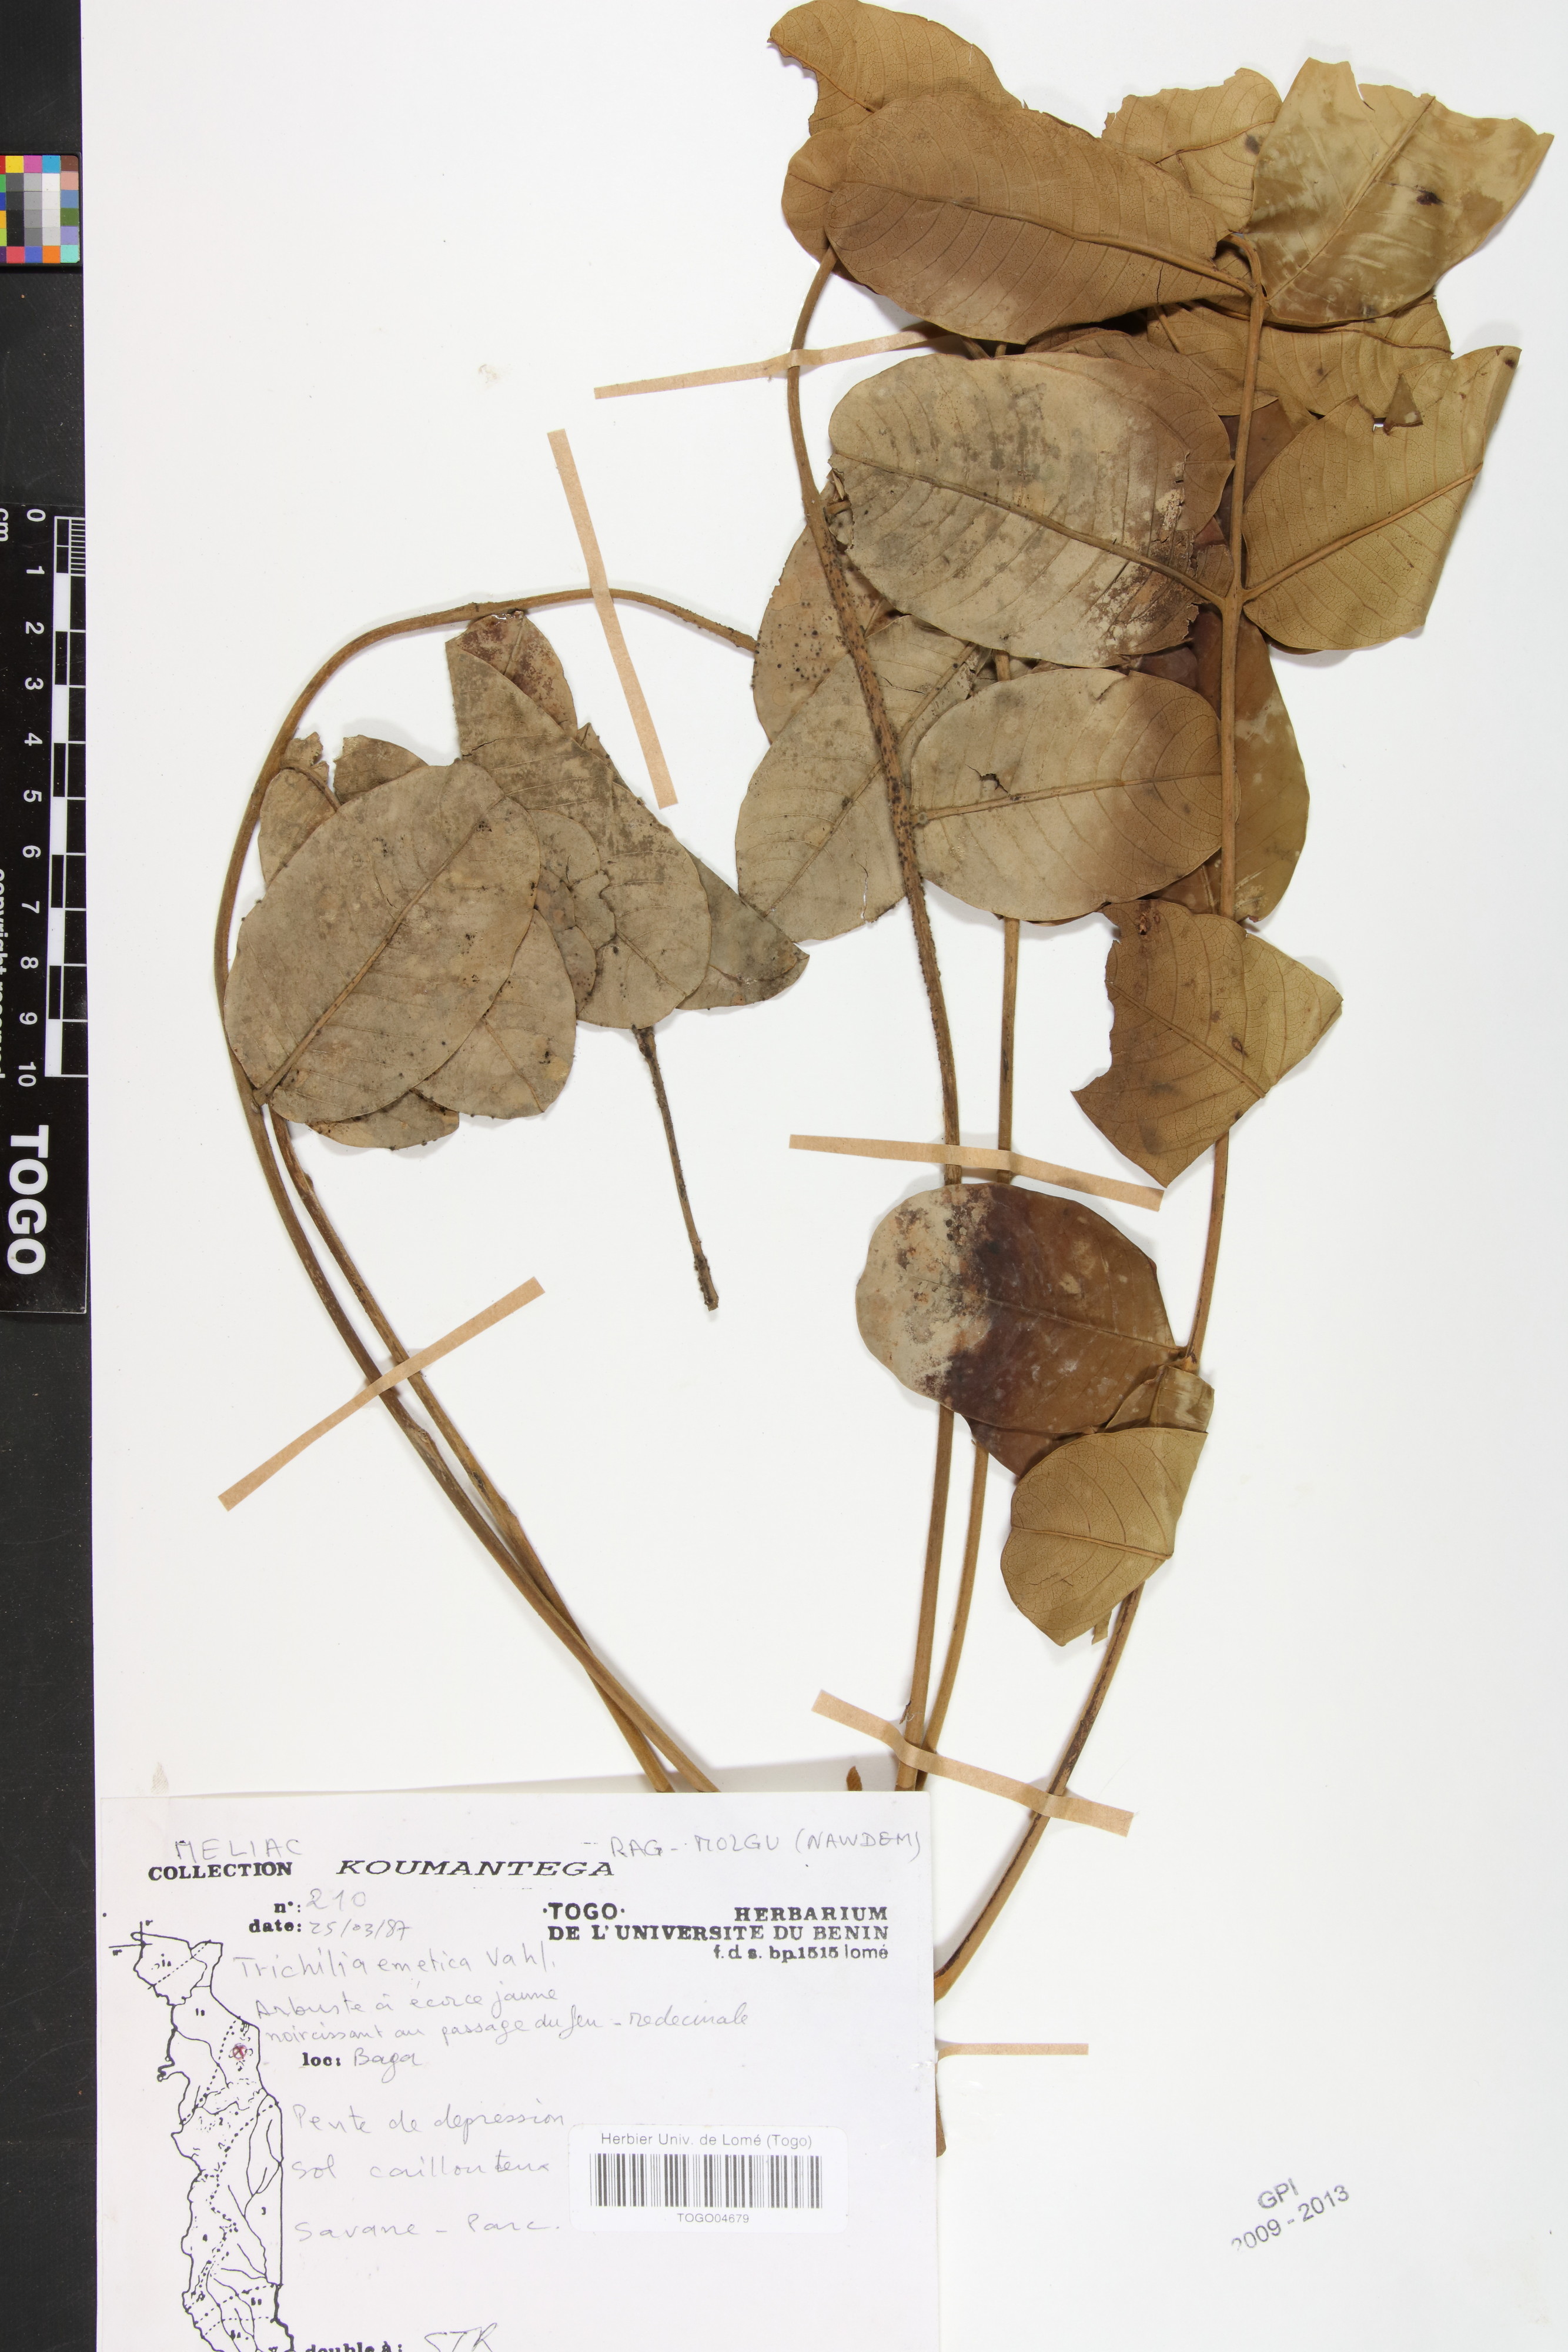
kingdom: Plantae
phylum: Tracheophyta
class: Magnoliopsida
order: Sapindales
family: Meliaceae
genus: Trichilia
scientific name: Trichilia emetica
